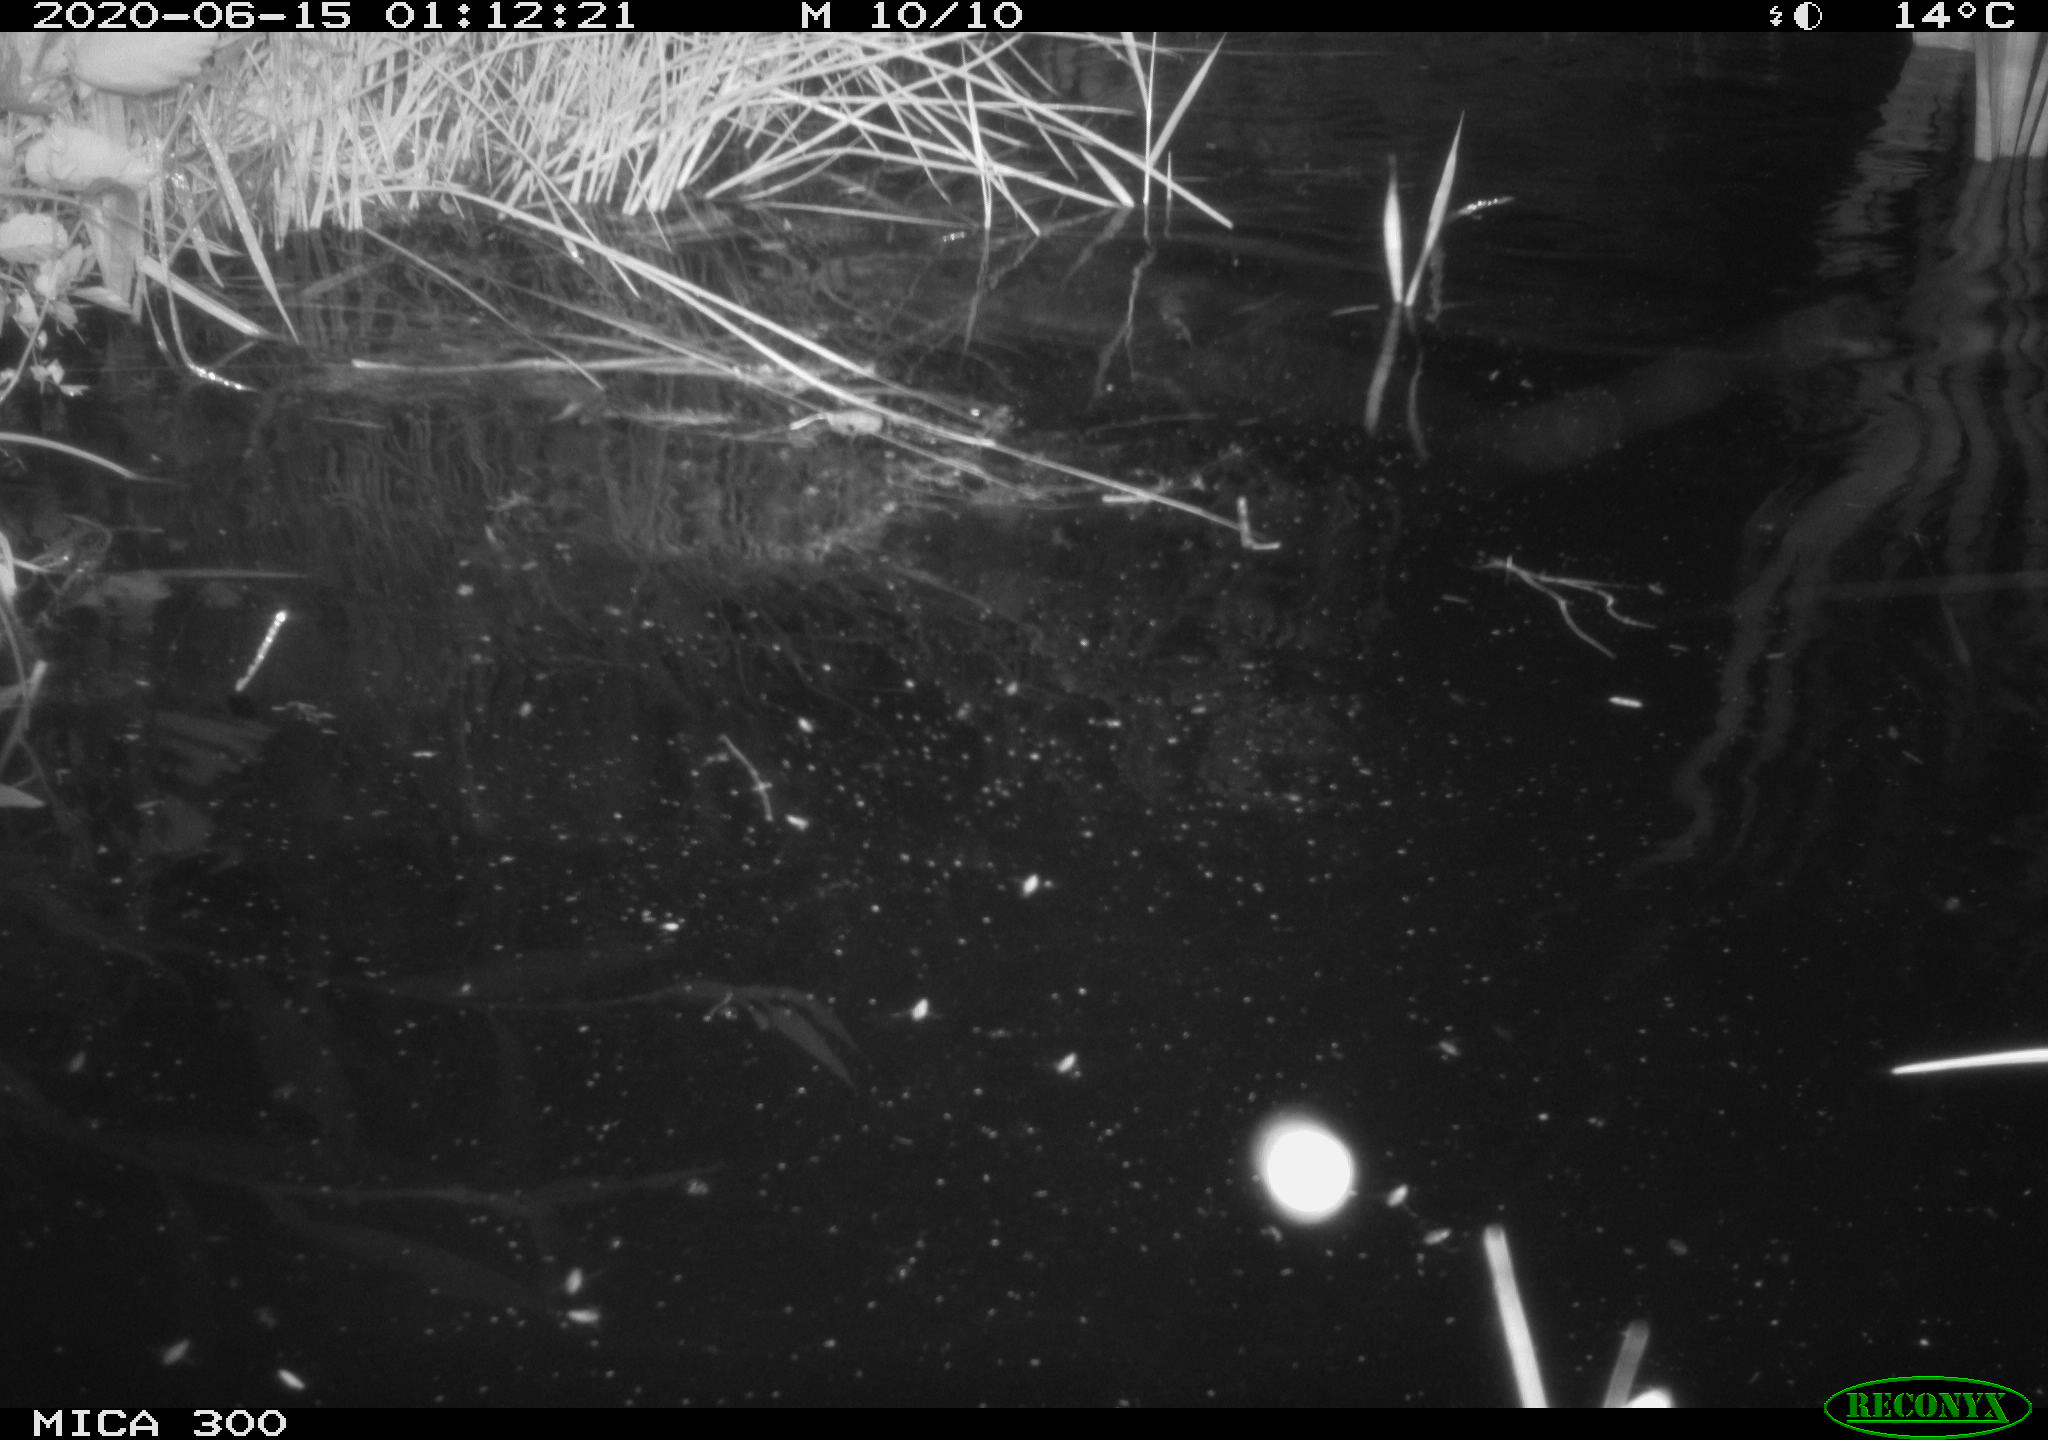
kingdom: Animalia
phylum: Chordata
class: Mammalia
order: Rodentia
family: Castoridae
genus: Castor
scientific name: Castor fiber
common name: Eurasian beaver
